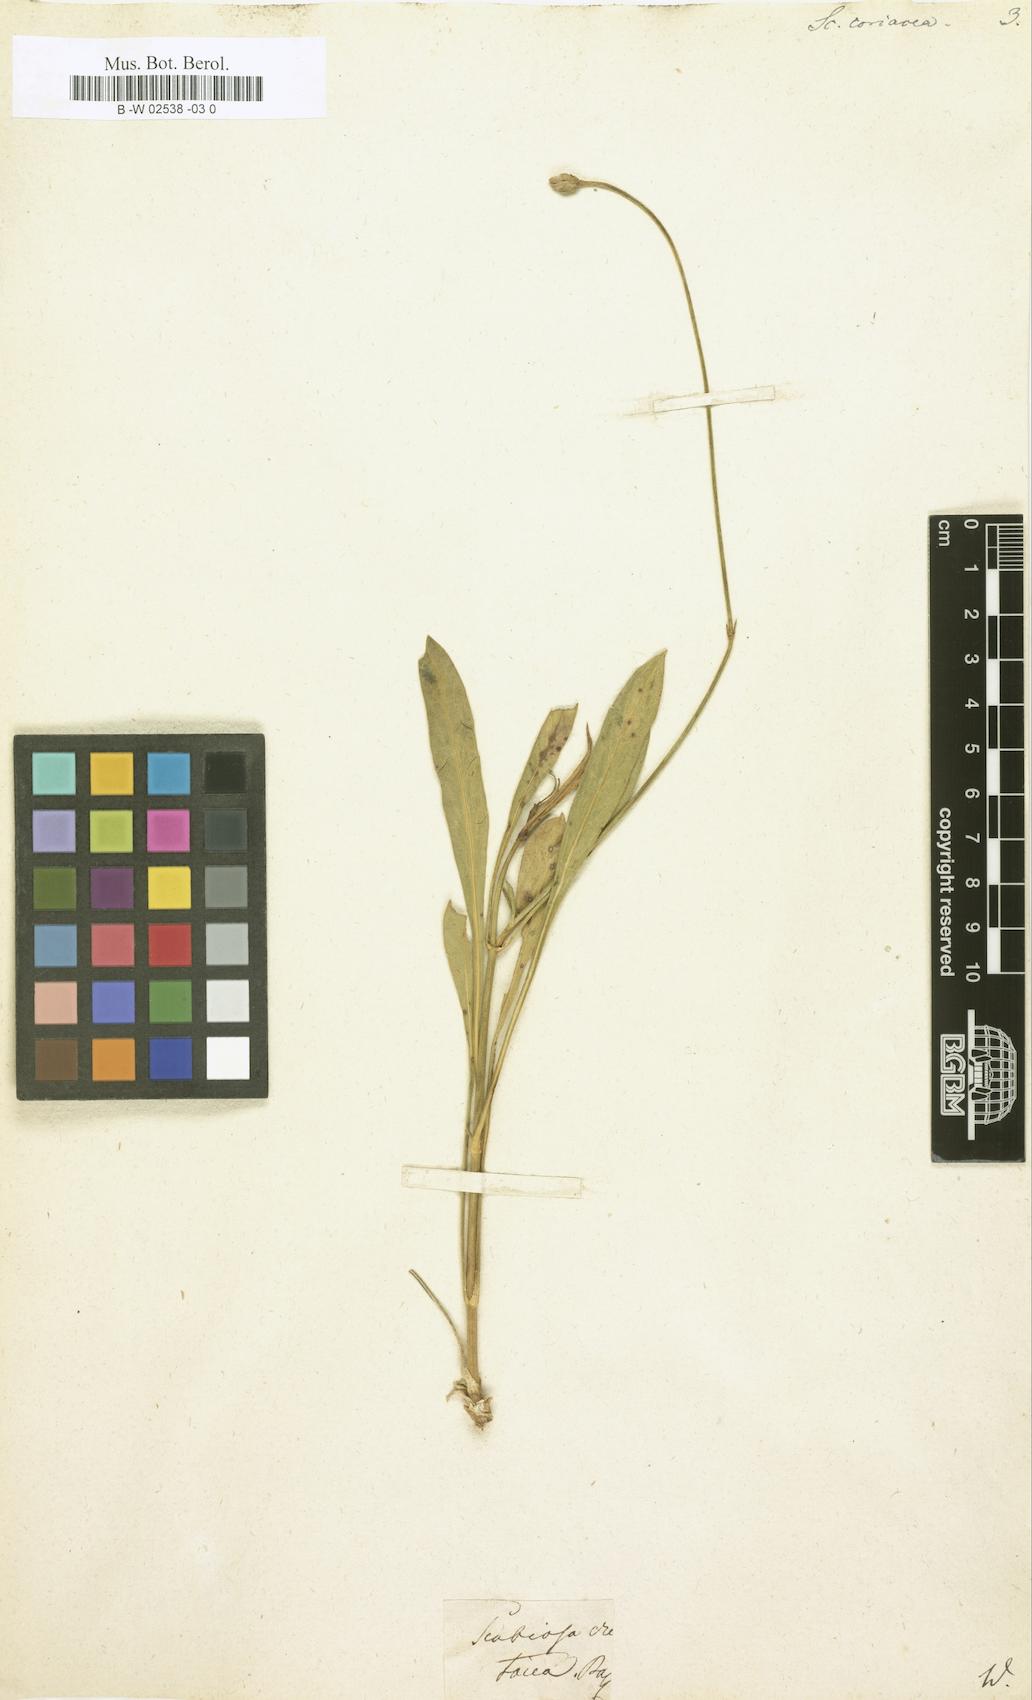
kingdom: Plantae
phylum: Tracheophyta
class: Magnoliopsida
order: Dipsacales
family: Caprifoliaceae
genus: Cephalaria
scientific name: Cephalaria coriacea
